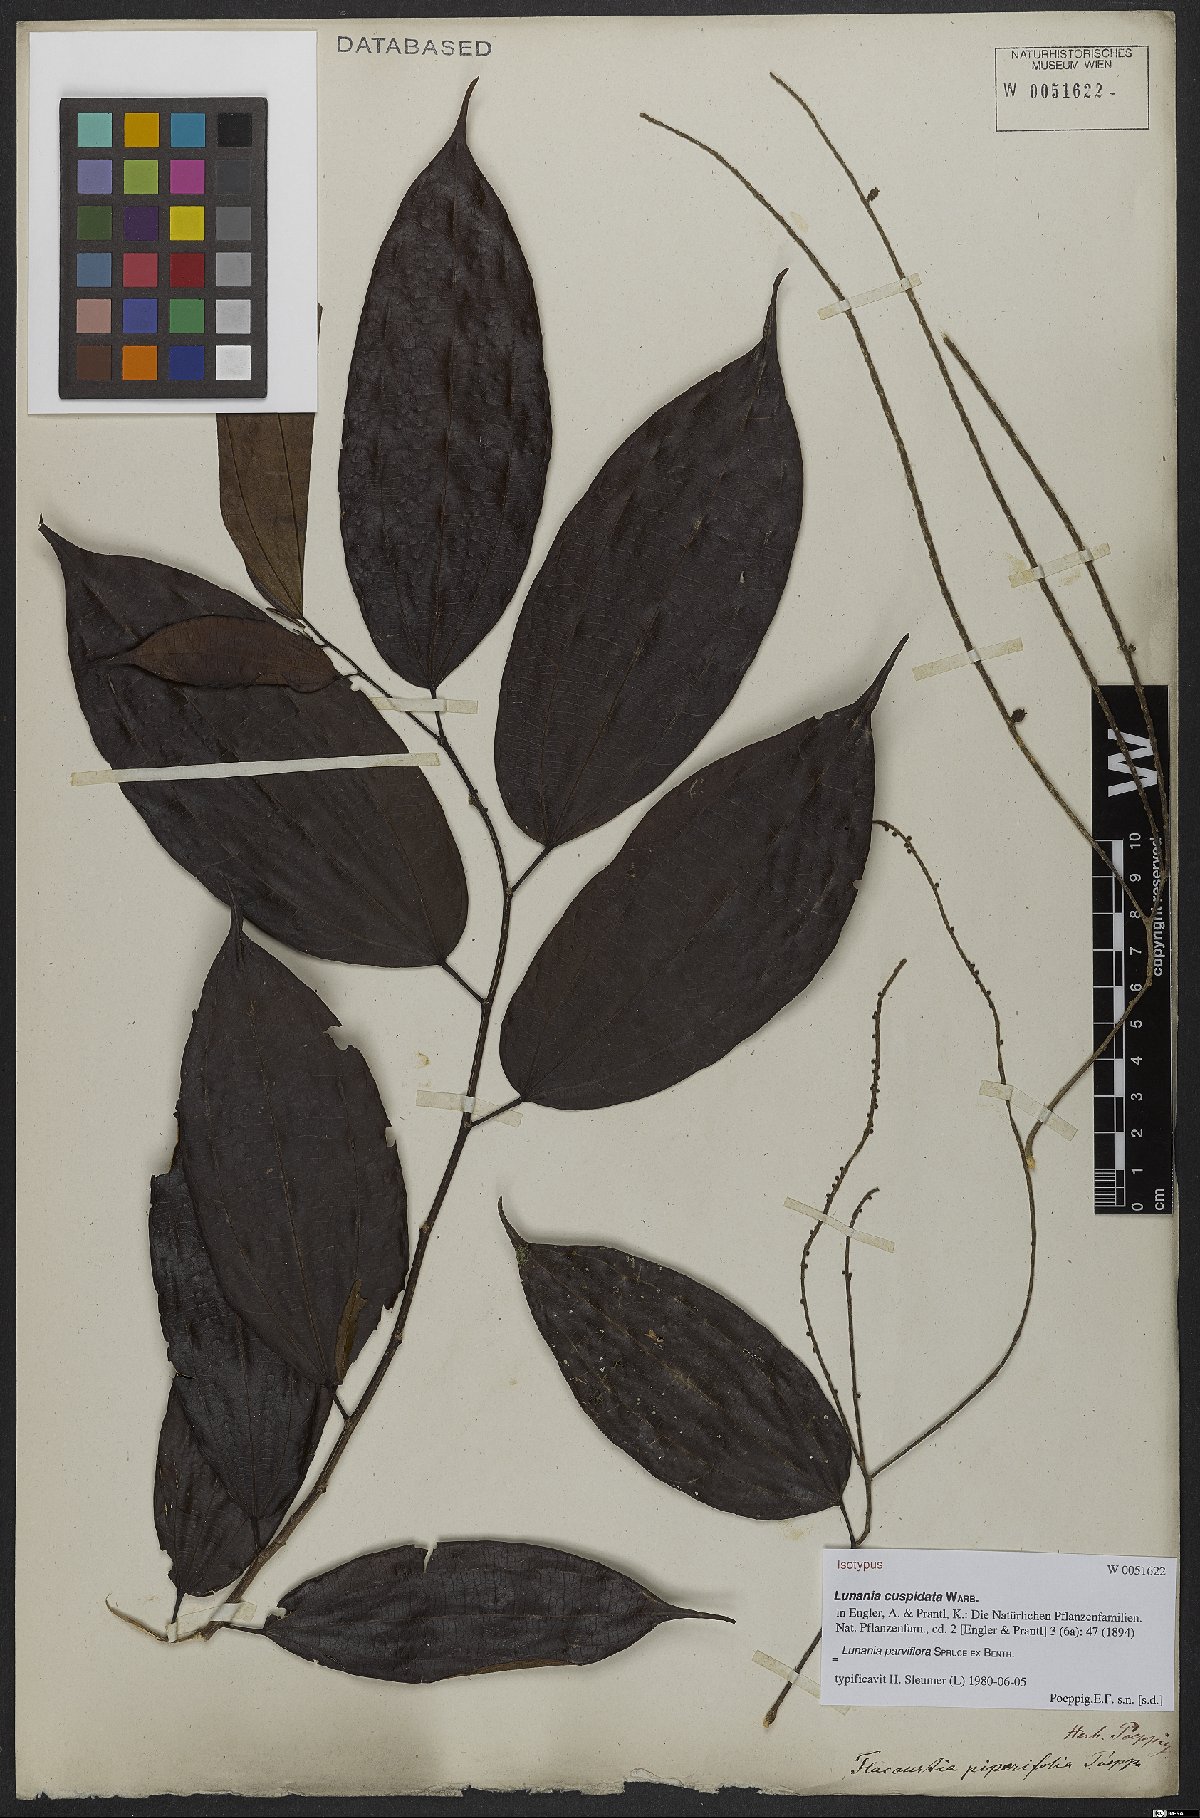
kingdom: Plantae
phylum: Tracheophyta
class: Magnoliopsida
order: Malpighiales
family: Salicaceae
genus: Lunania
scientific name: Lunania parviflora
